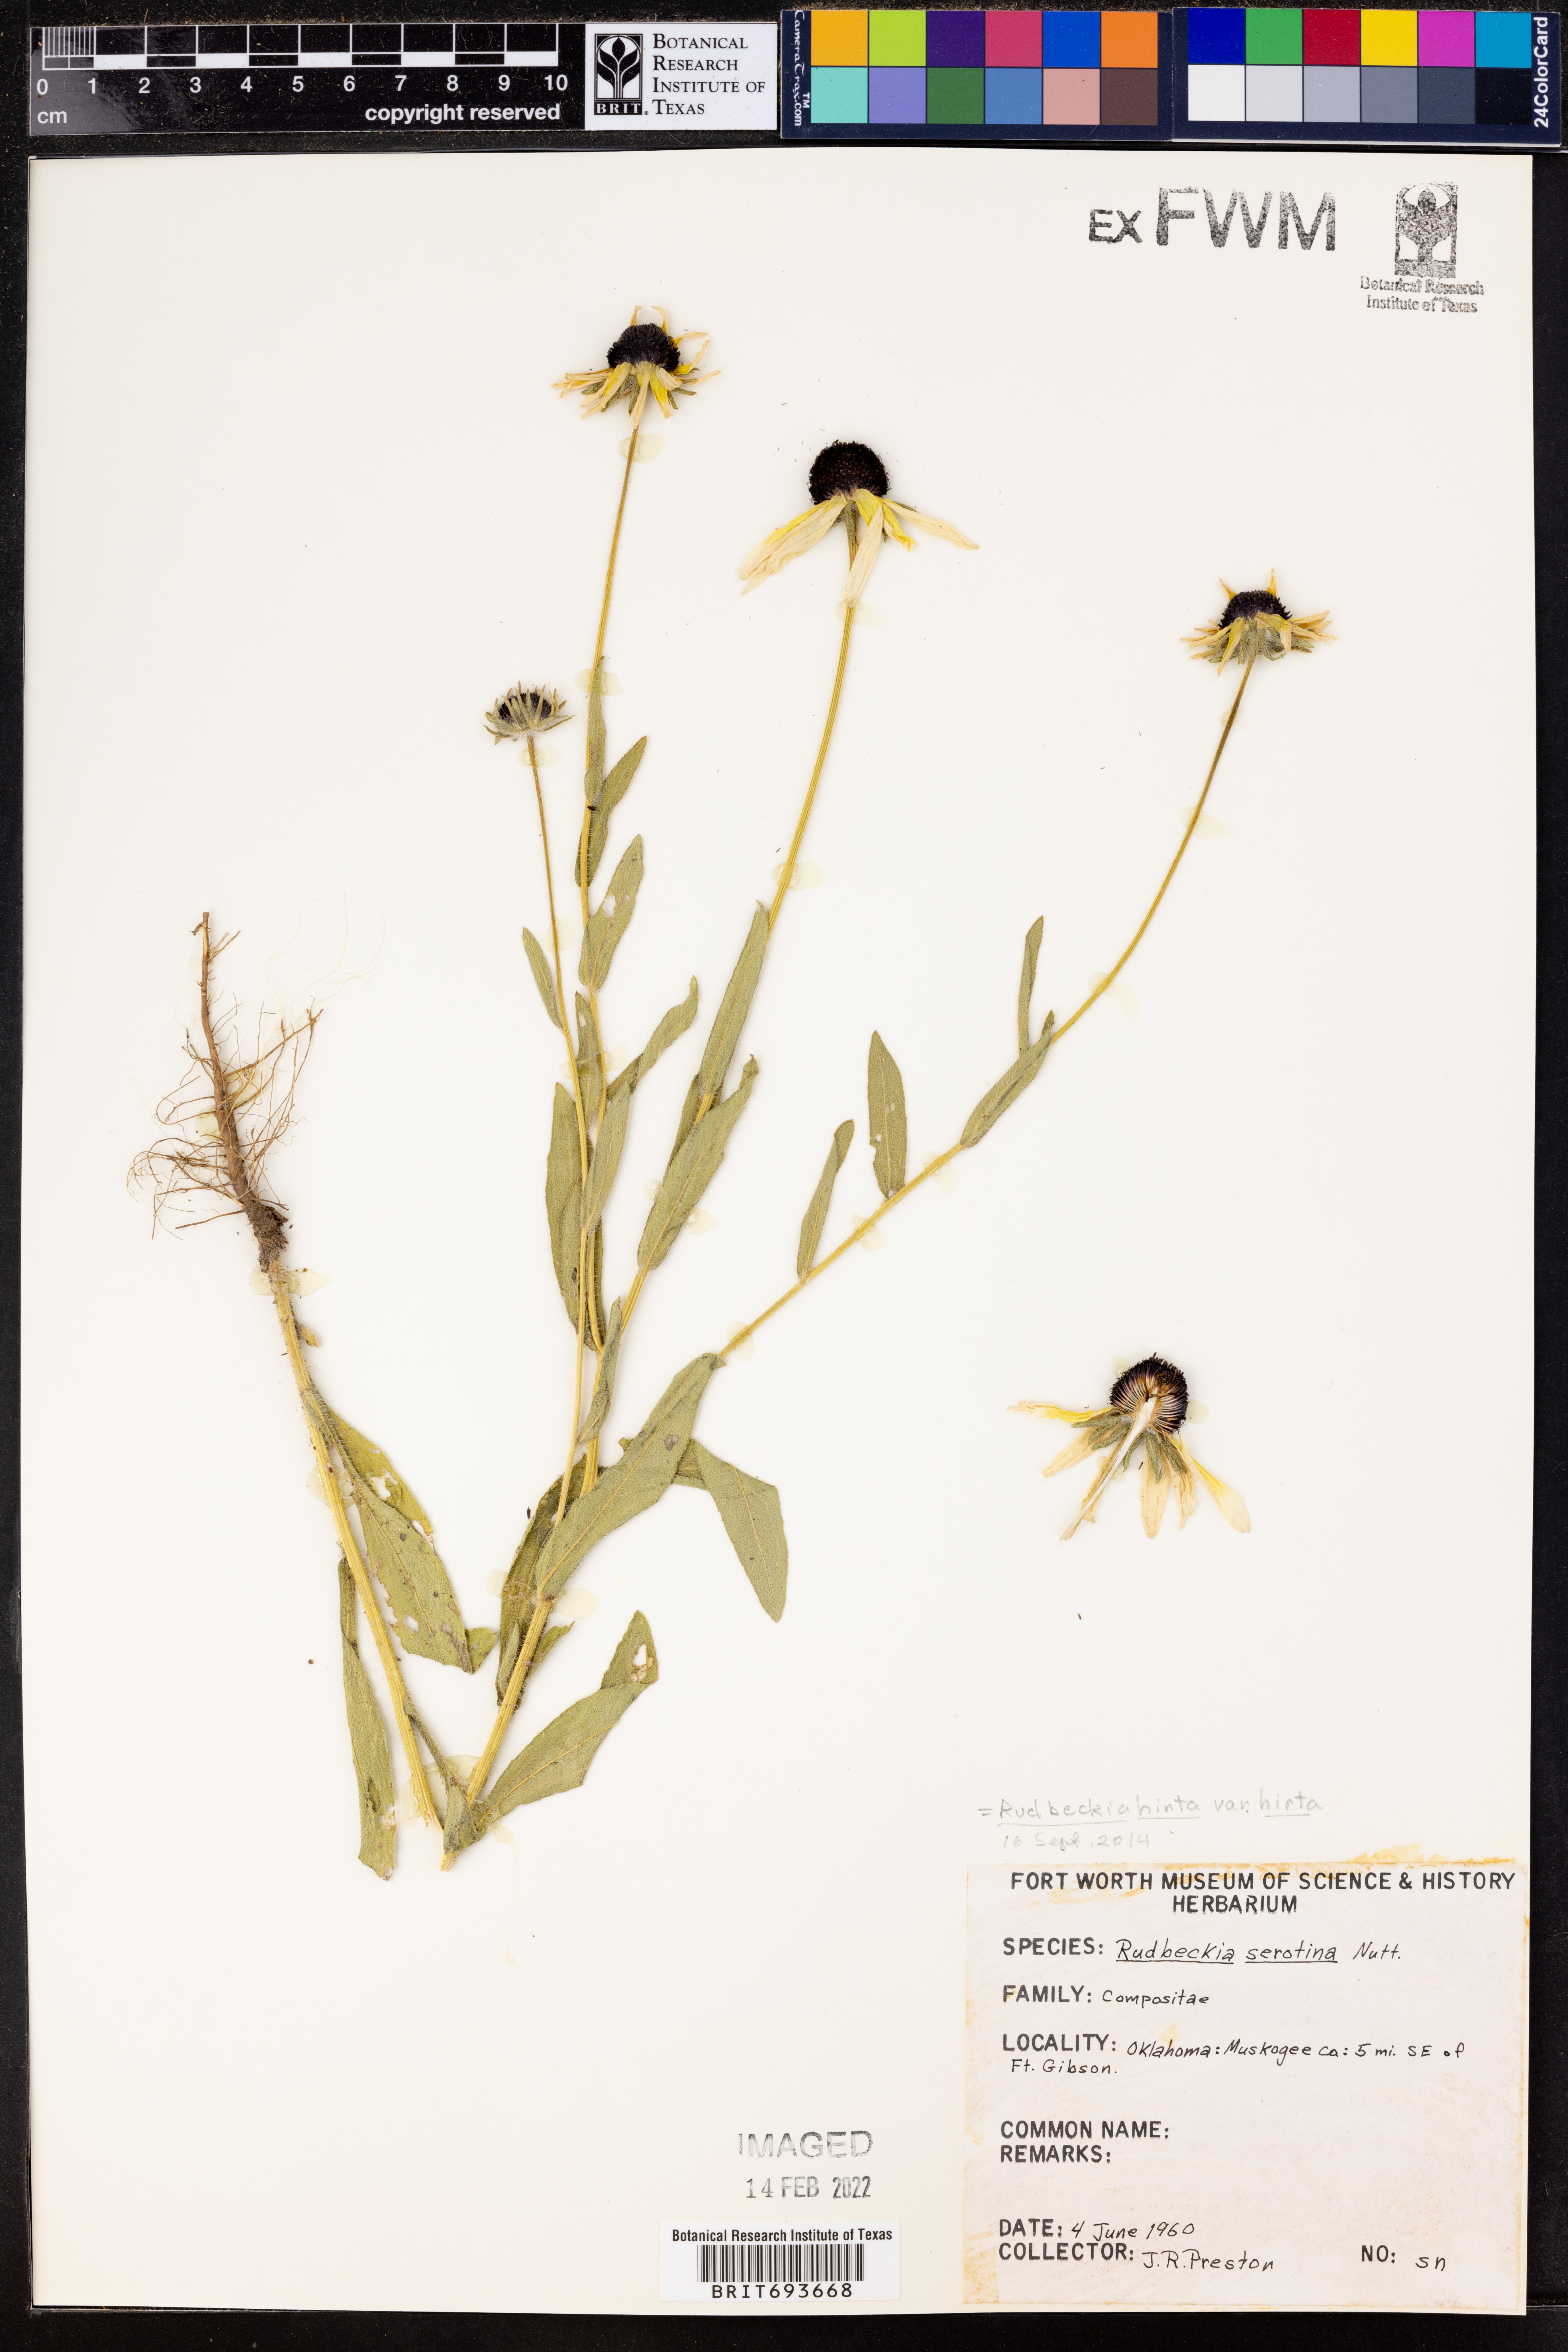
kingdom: Plantae
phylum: Tracheophyta
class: Magnoliopsida
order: Asterales
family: Asteraceae
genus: Rudbeckia
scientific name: Rudbeckia hirta
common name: Black-eyed-susan
